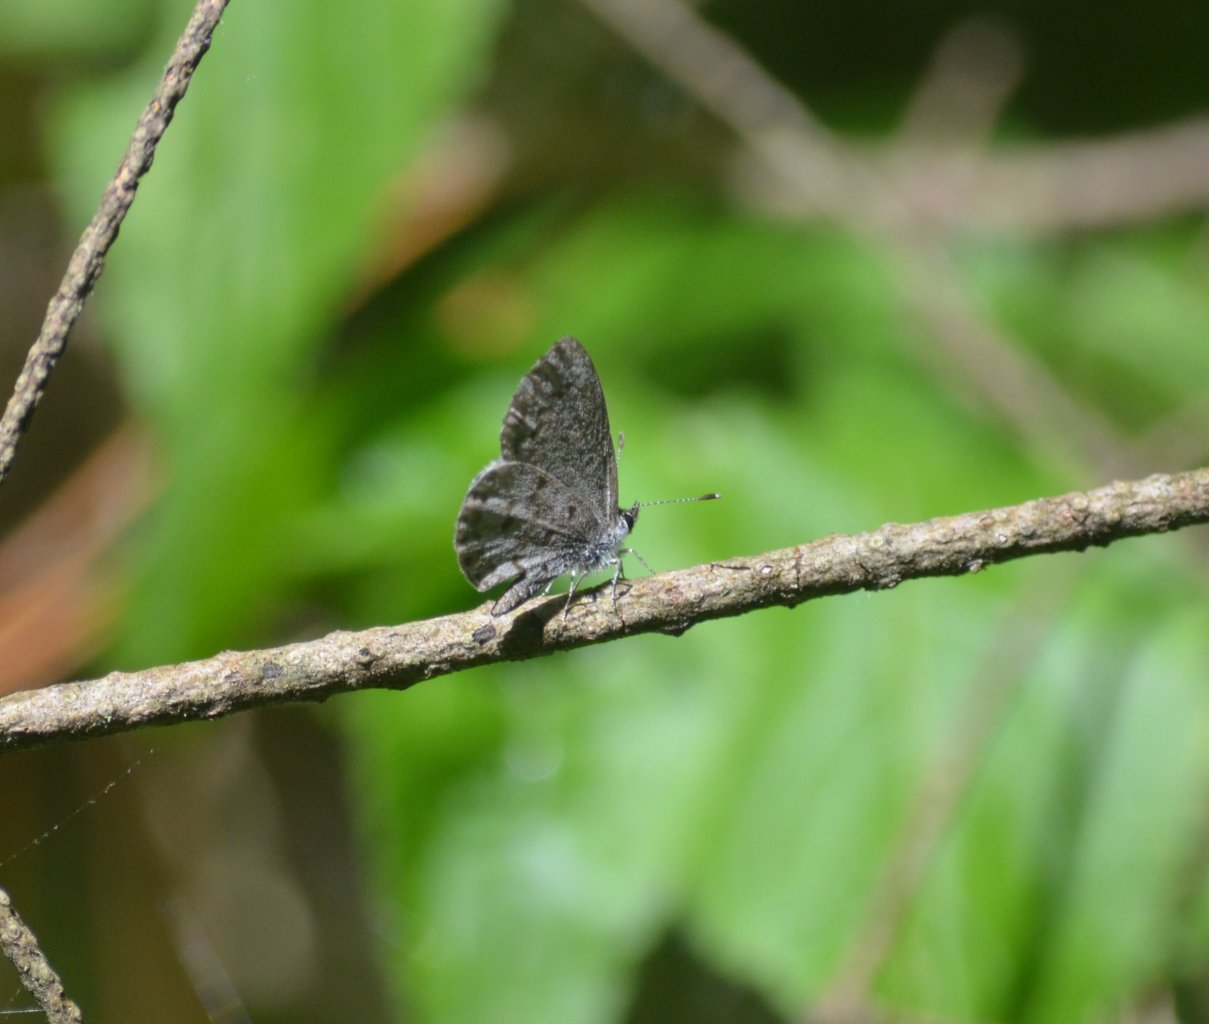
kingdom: Animalia
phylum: Arthropoda
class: Insecta
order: Lepidoptera
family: Lycaenidae
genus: Celastrina
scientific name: Celastrina
